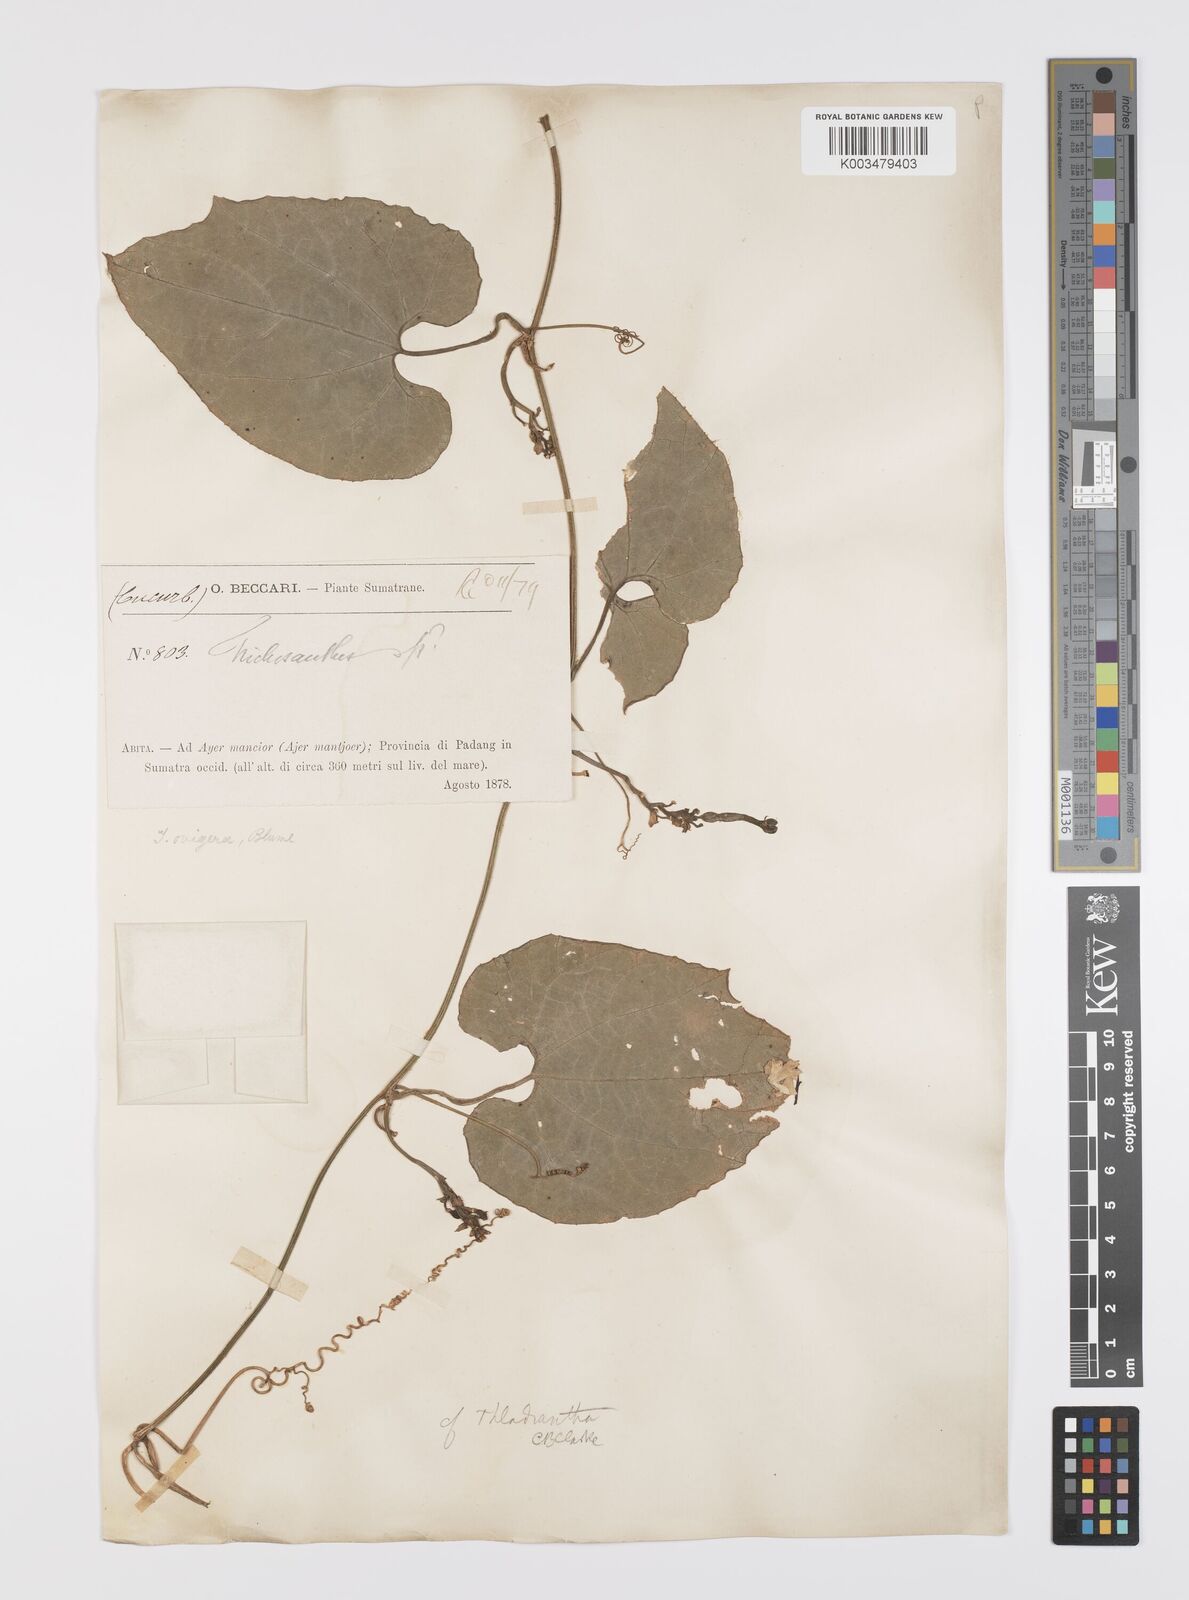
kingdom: Plantae
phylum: Tracheophyta
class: Magnoliopsida
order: Cucurbitales
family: Cucurbitaceae
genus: Trichosanthes
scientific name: Trichosanthes ovigera
